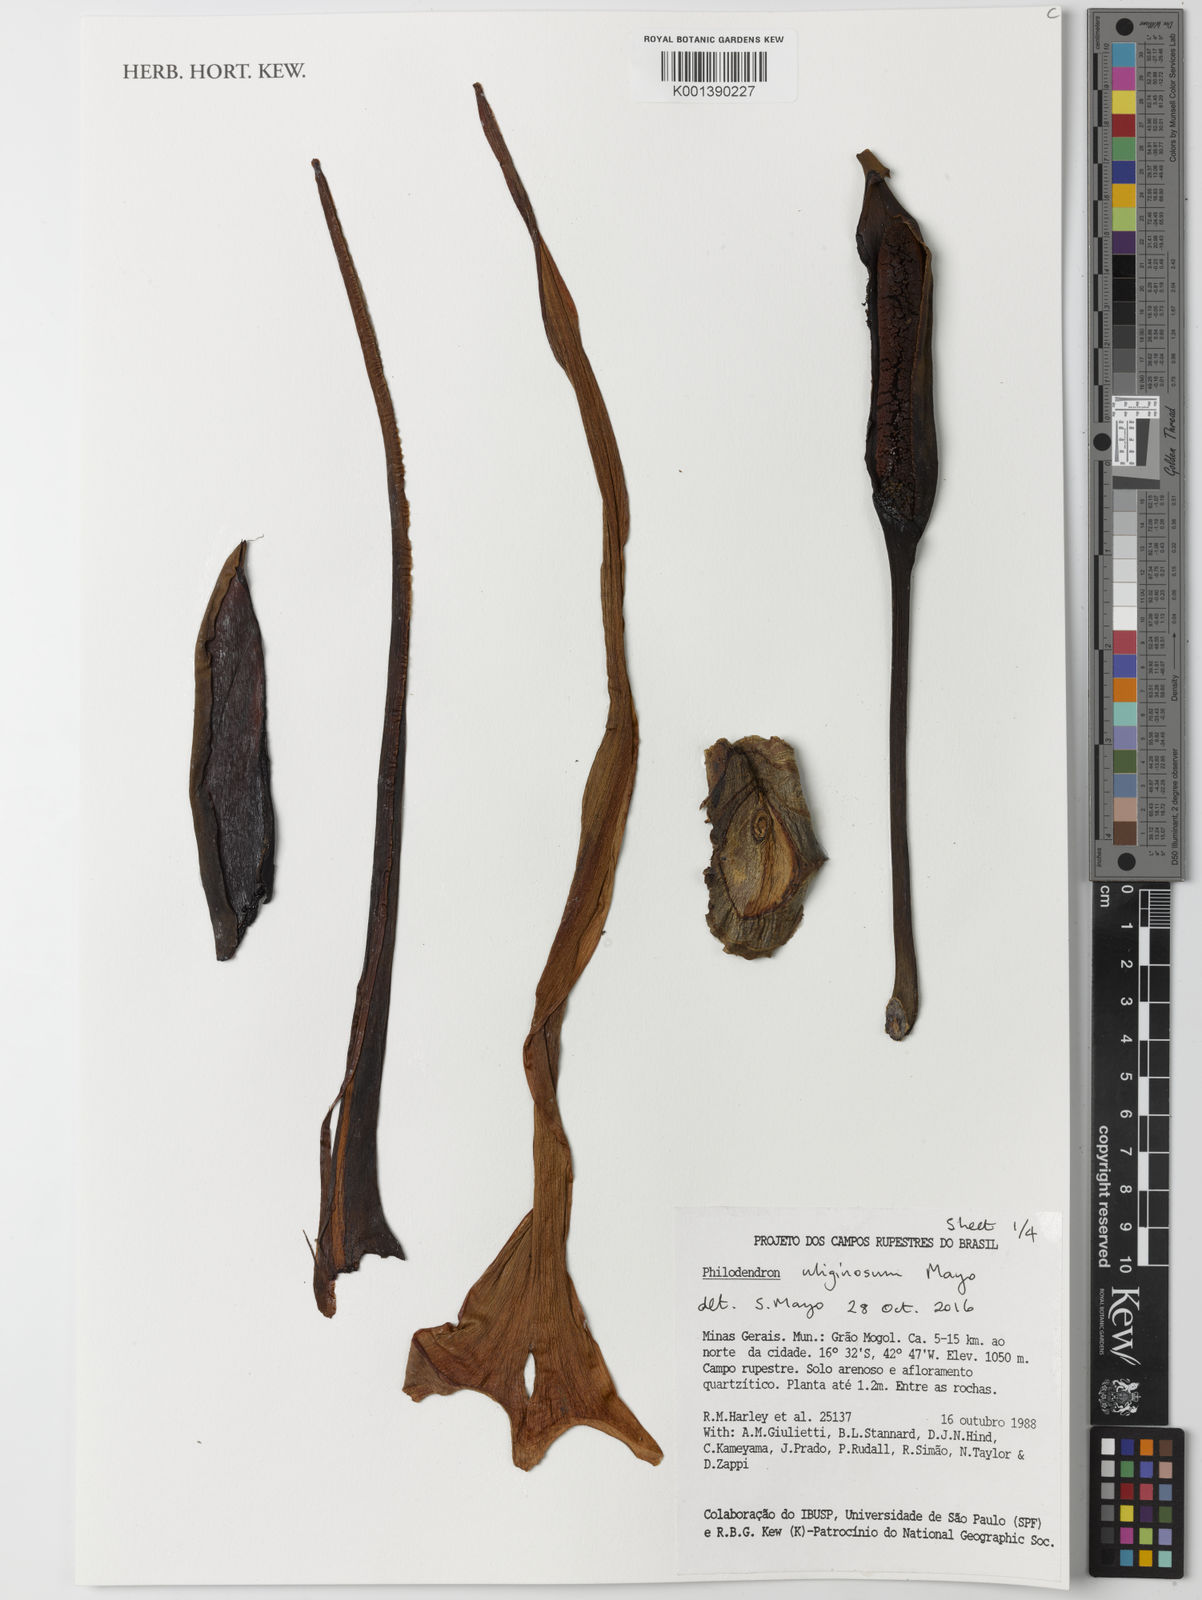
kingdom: Plantae
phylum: Tracheophyta
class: Liliopsida
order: Alismatales
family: Araceae
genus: Thaumatophyllum
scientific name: Thaumatophyllum uliginosum
